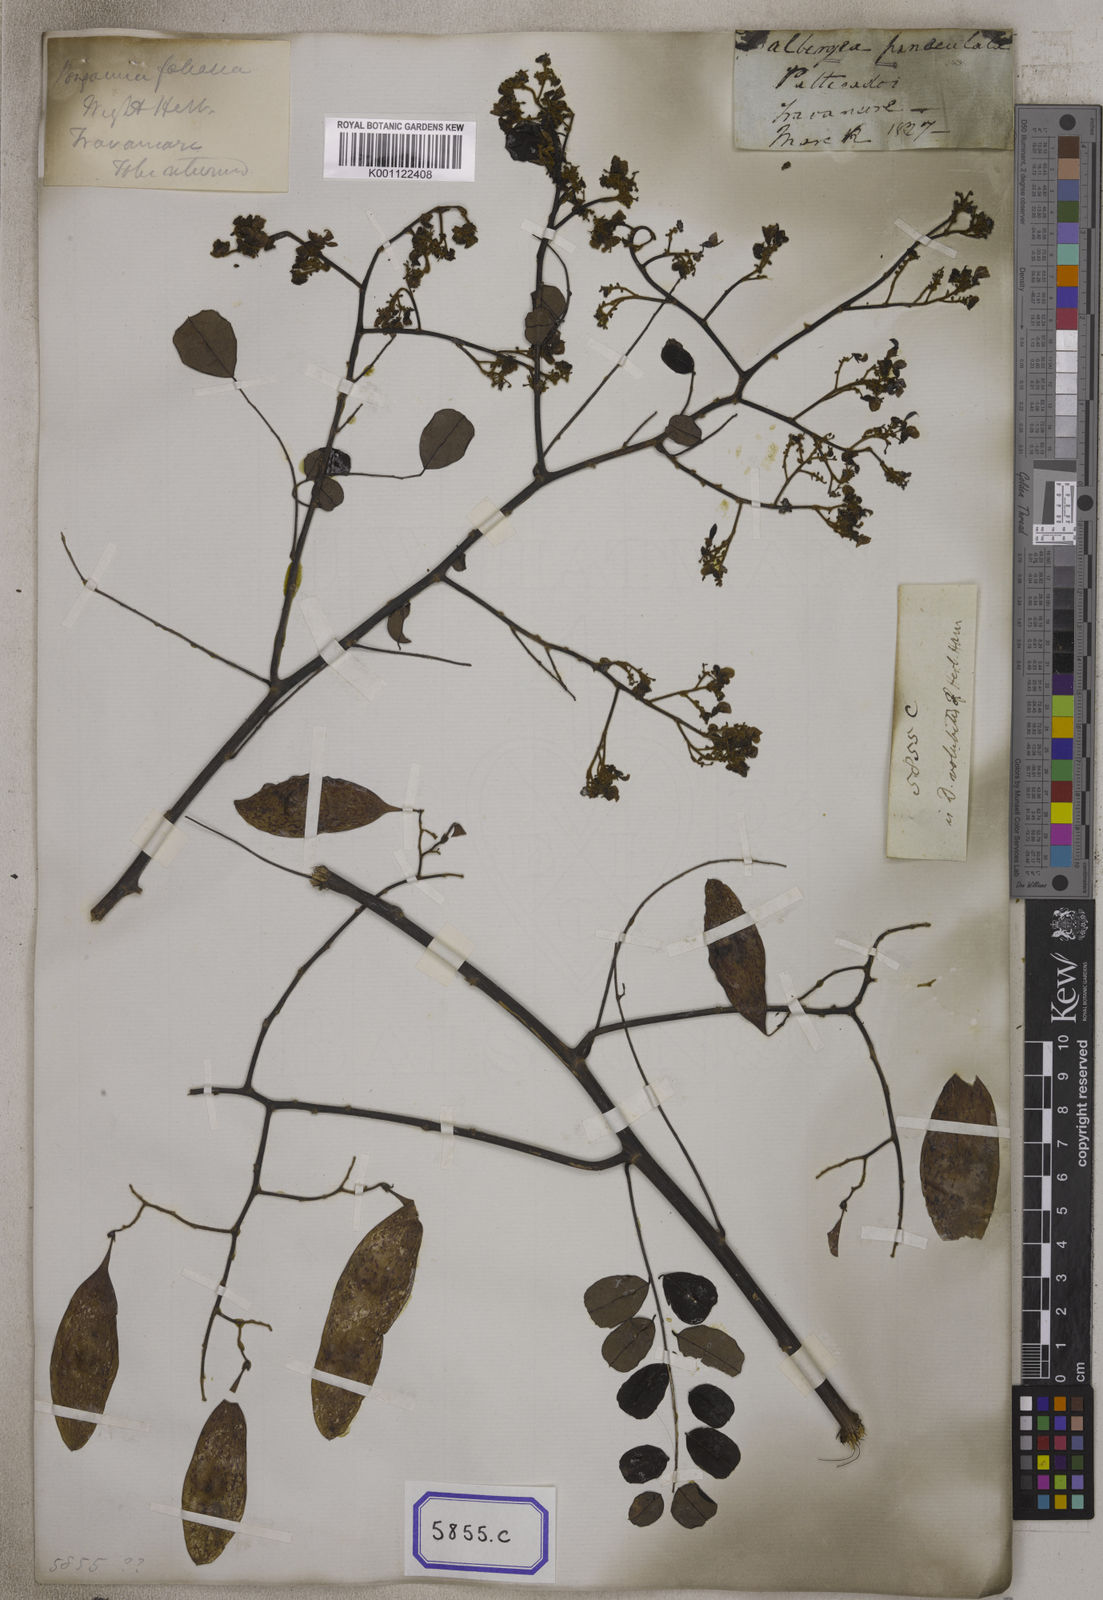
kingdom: Plantae
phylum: Tracheophyta
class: Magnoliopsida
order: Fabales
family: Fabaceae
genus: Dalbergia
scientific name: Dalbergia
